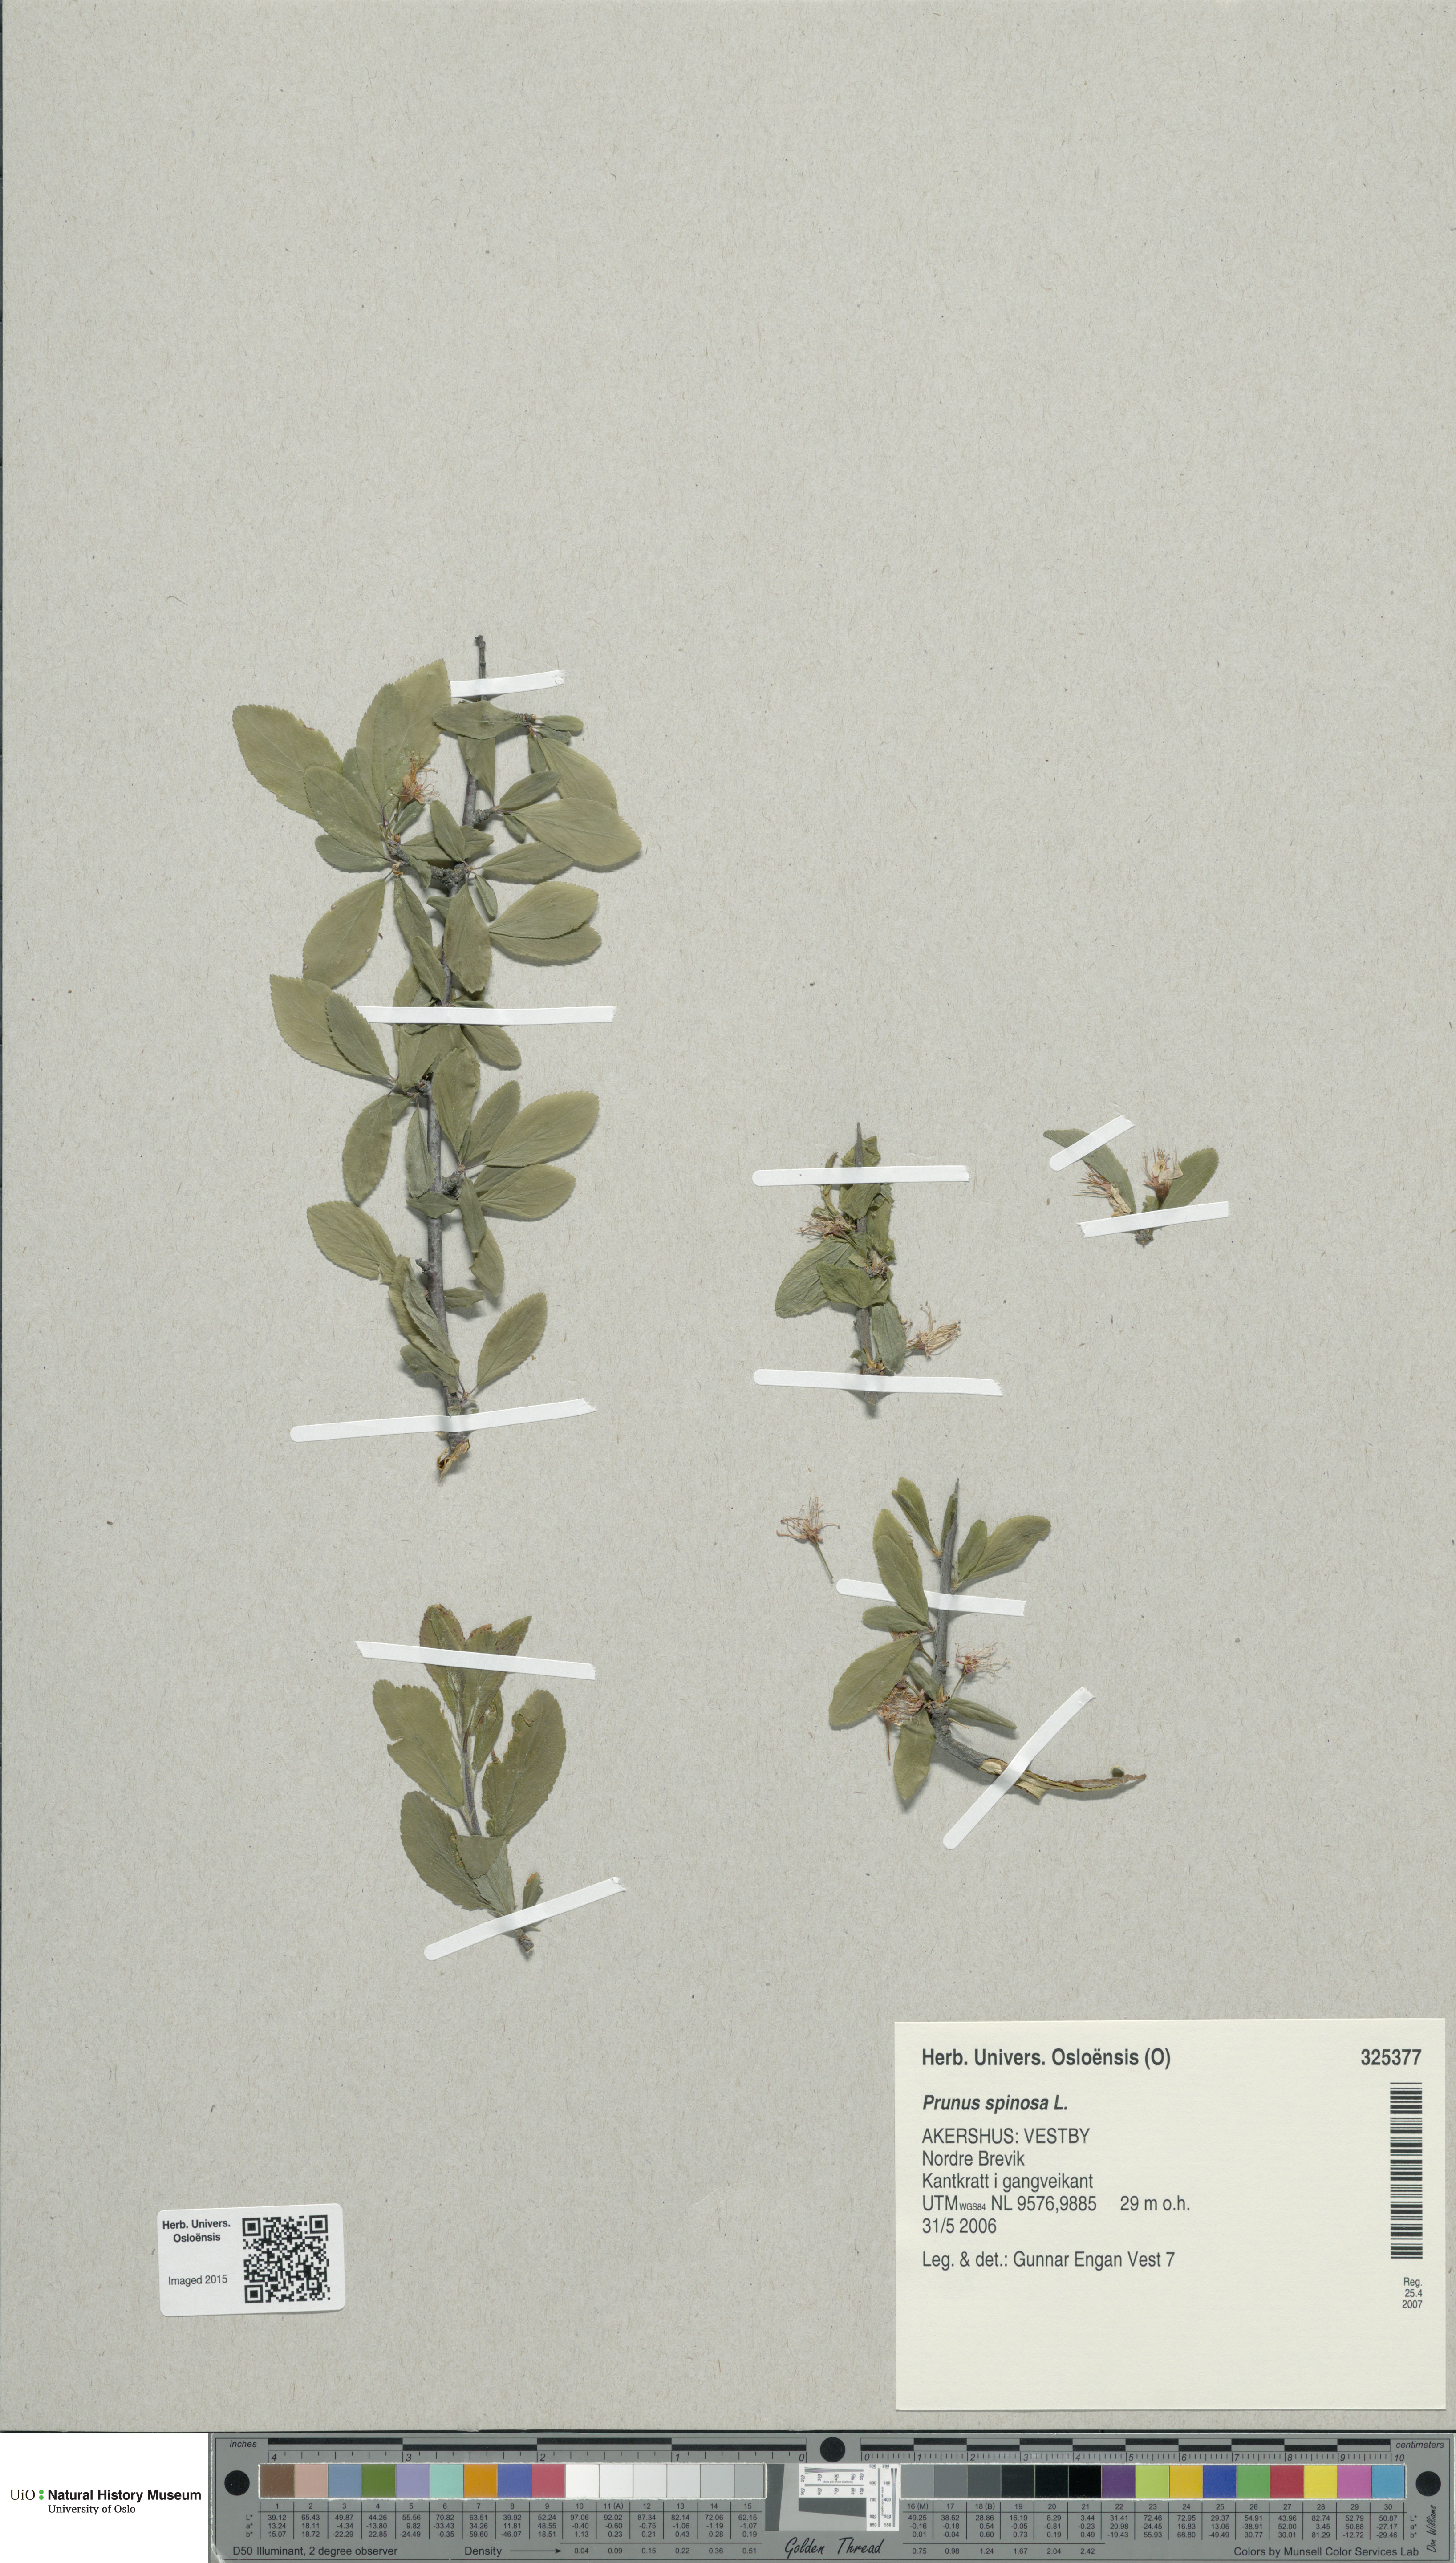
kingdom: Plantae
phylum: Tracheophyta
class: Magnoliopsida
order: Rosales
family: Rosaceae
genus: Prunus
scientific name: Prunus spinosa
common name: Blackthorn
